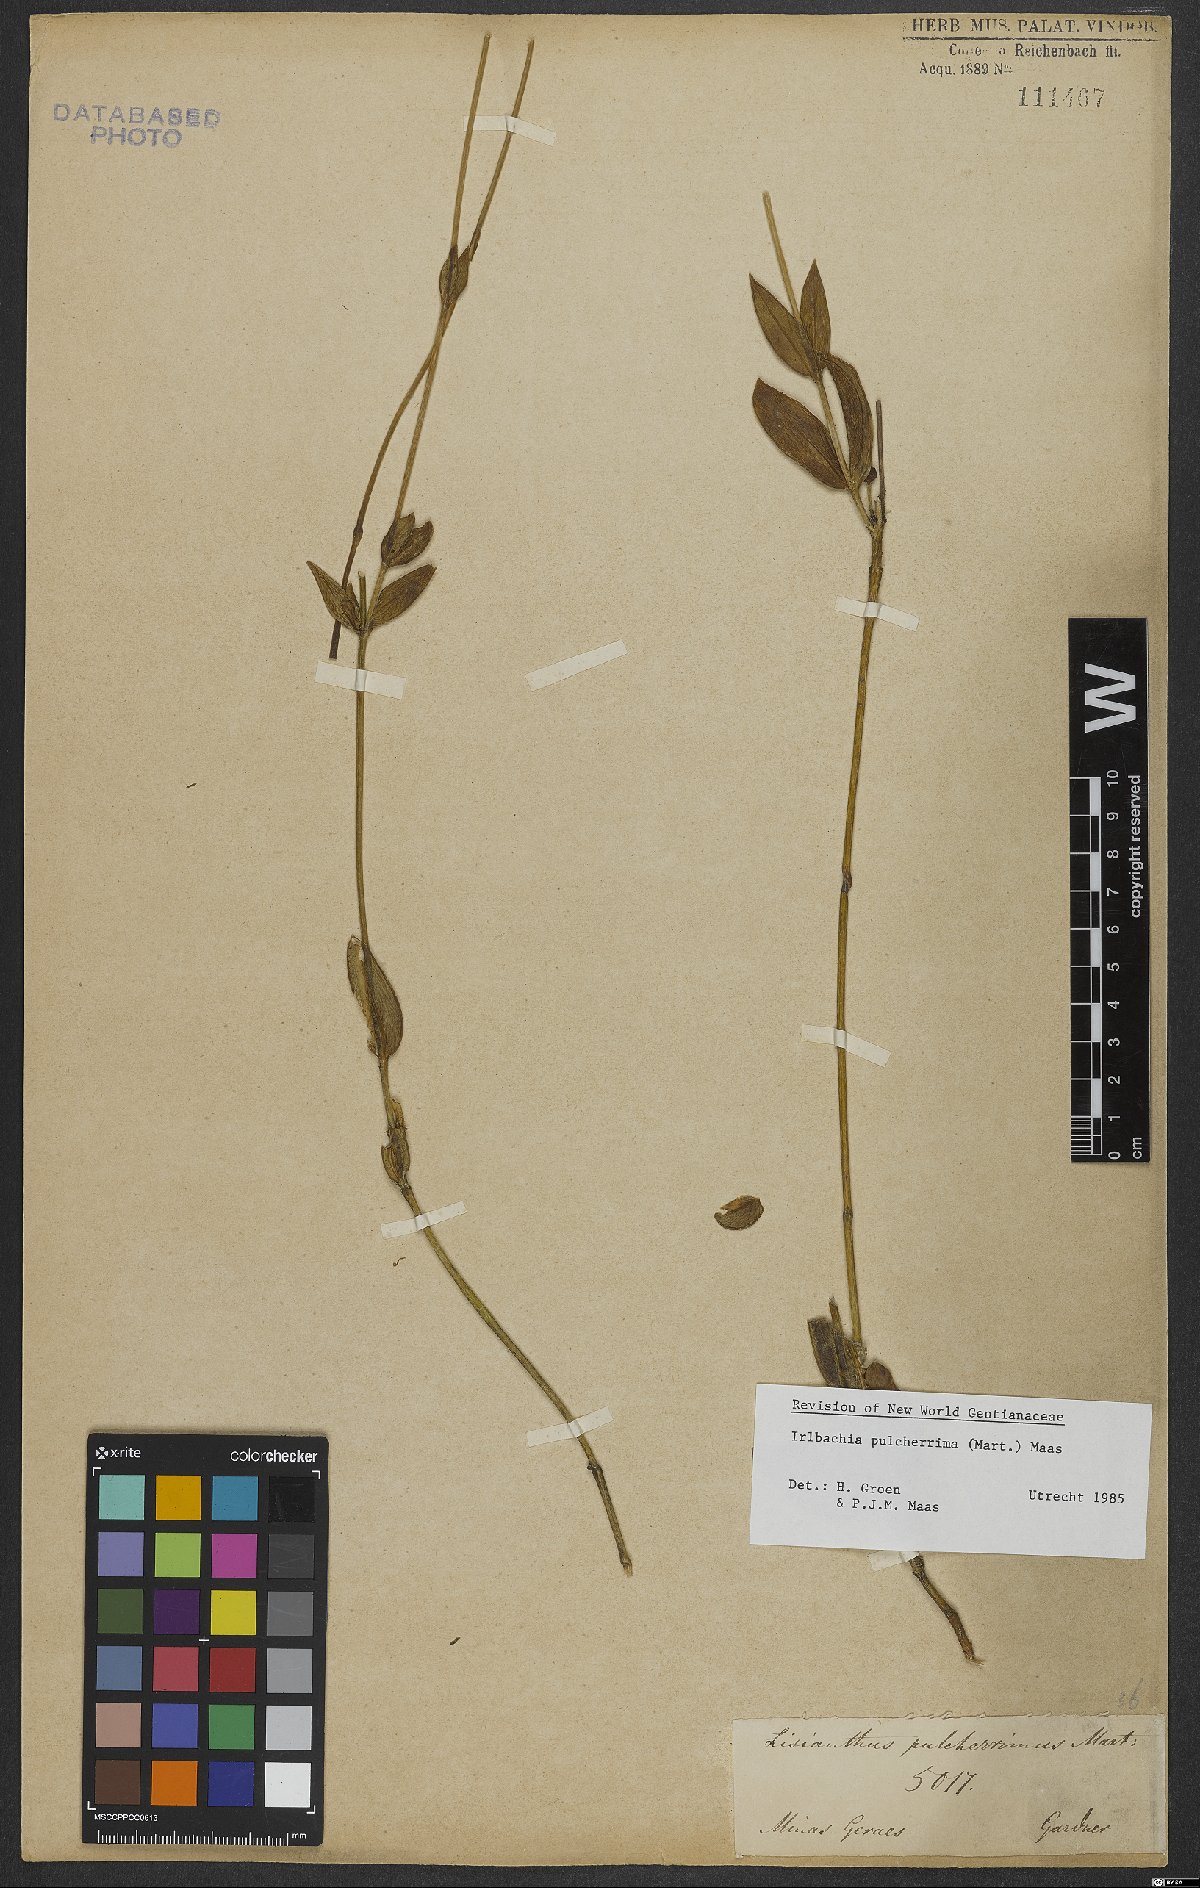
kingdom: Plantae
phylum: Tracheophyta
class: Magnoliopsida
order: Gentianales
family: Gentianaceae
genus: Calolisianthus
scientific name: Calolisianthus pulcherrimus
